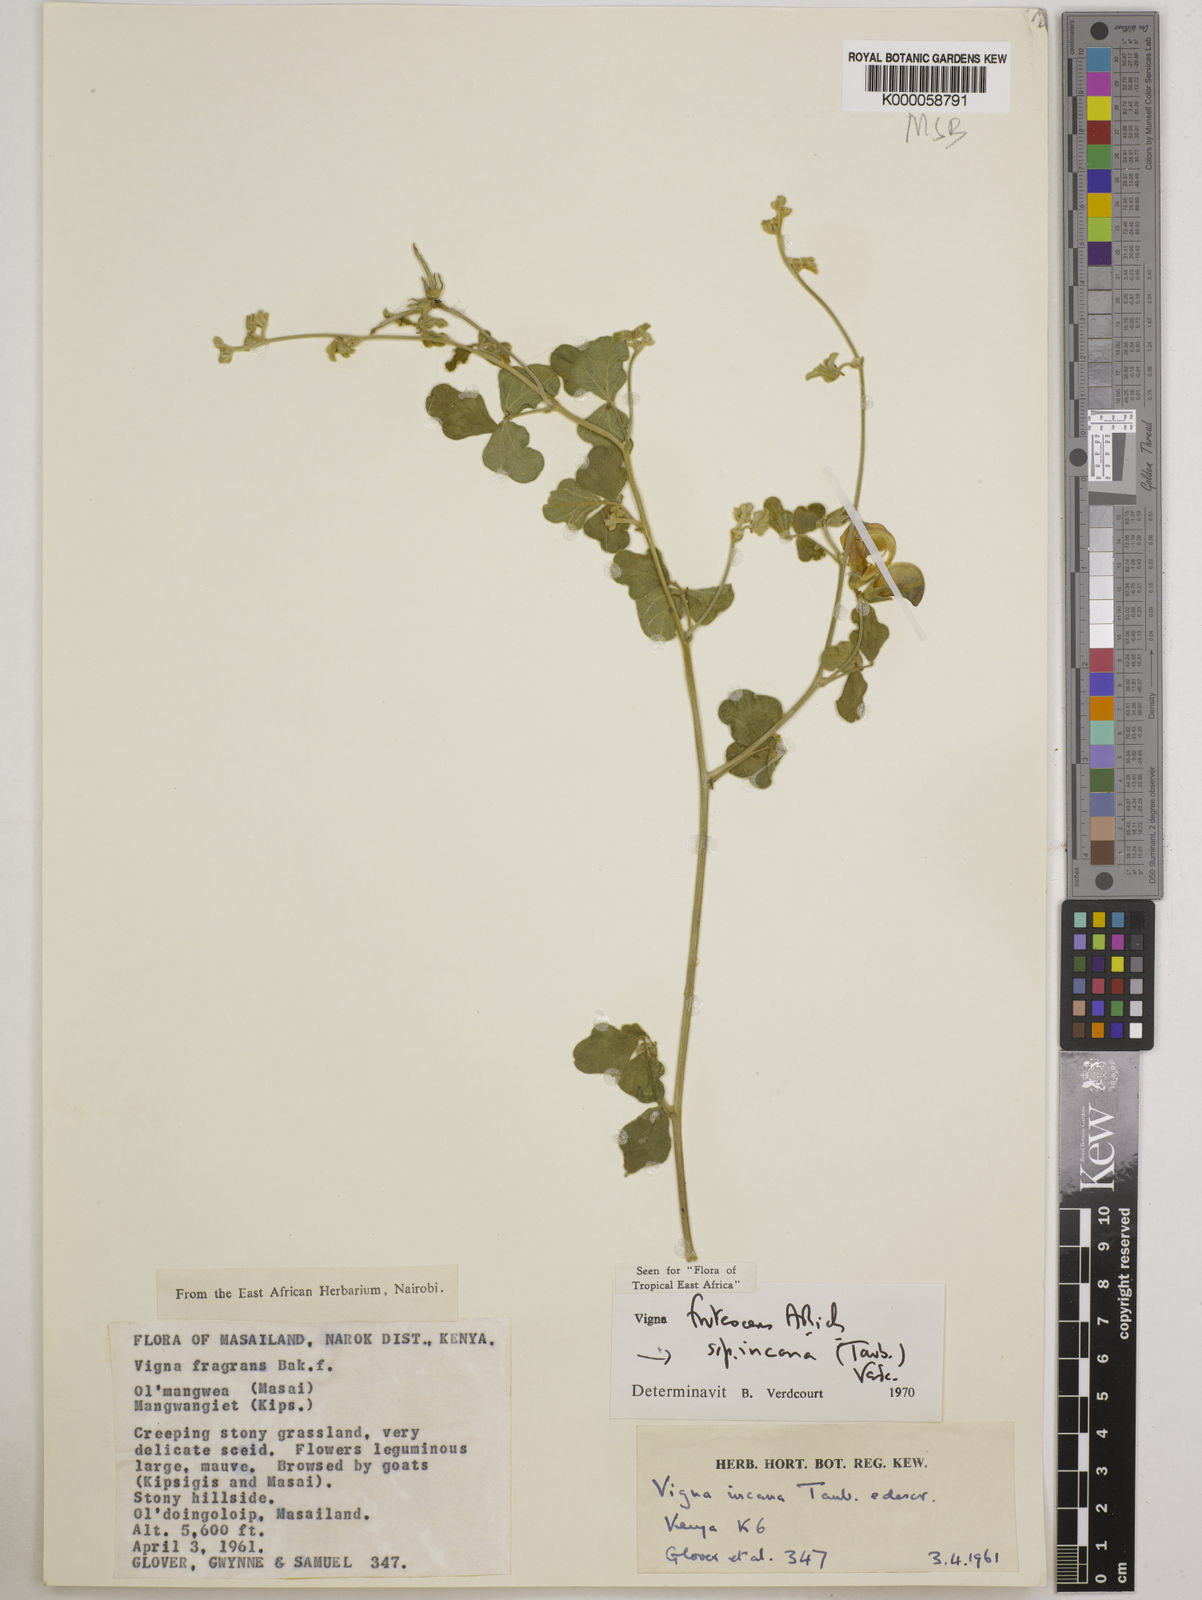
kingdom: Plantae
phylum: Tracheophyta
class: Magnoliopsida
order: Fabales
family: Fabaceae
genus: Vigna
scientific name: Vigna frutescens
